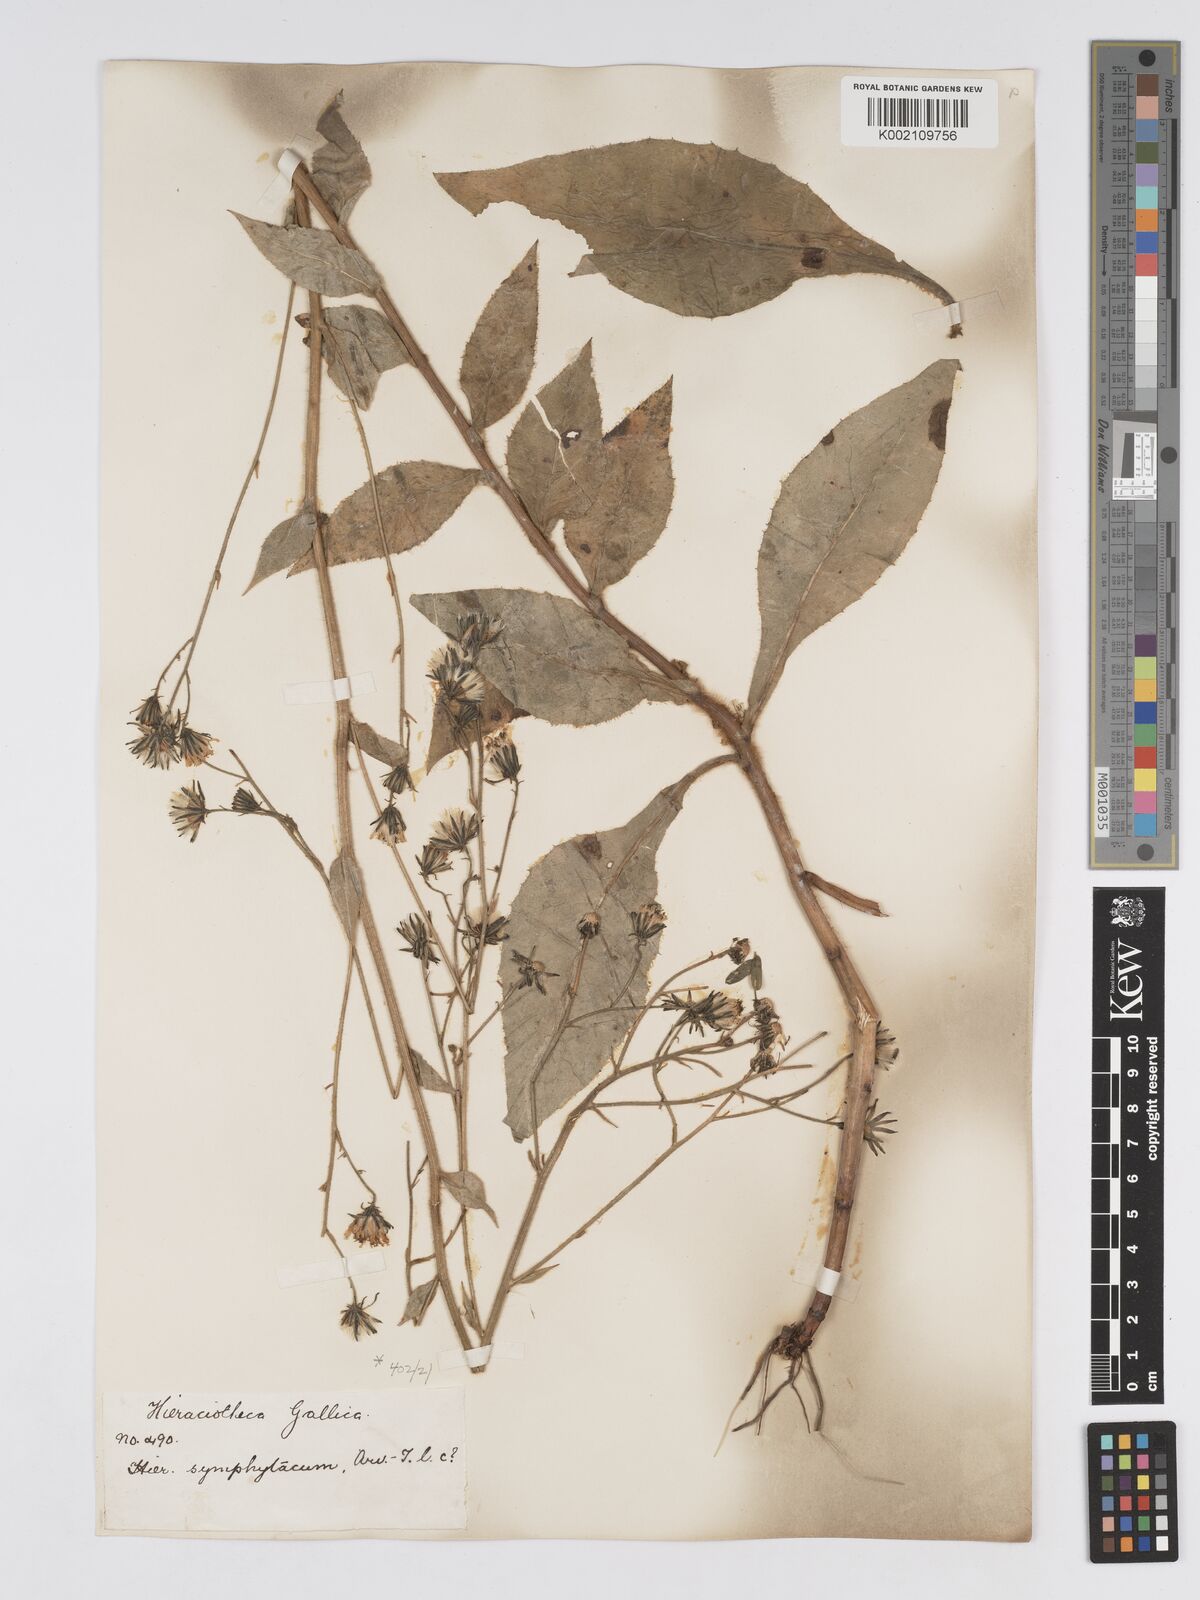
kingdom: Plantae
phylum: Tracheophyta
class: Magnoliopsida
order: Asterales
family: Asteraceae
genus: Hieracium
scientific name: Hieracium symphytaceum
